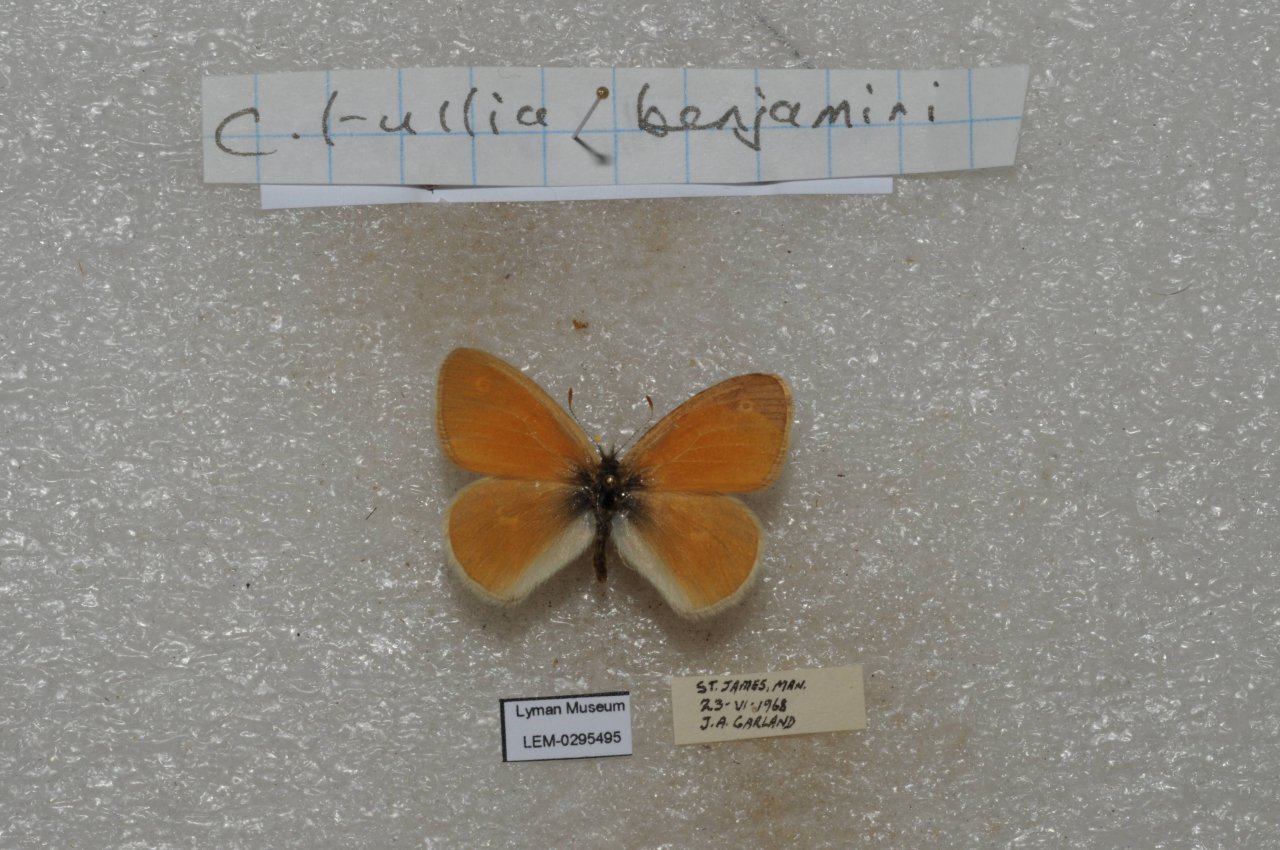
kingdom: Animalia
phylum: Arthropoda
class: Insecta
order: Lepidoptera
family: Nymphalidae
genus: Coenonympha
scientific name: Coenonympha tullia
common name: Large Heath
